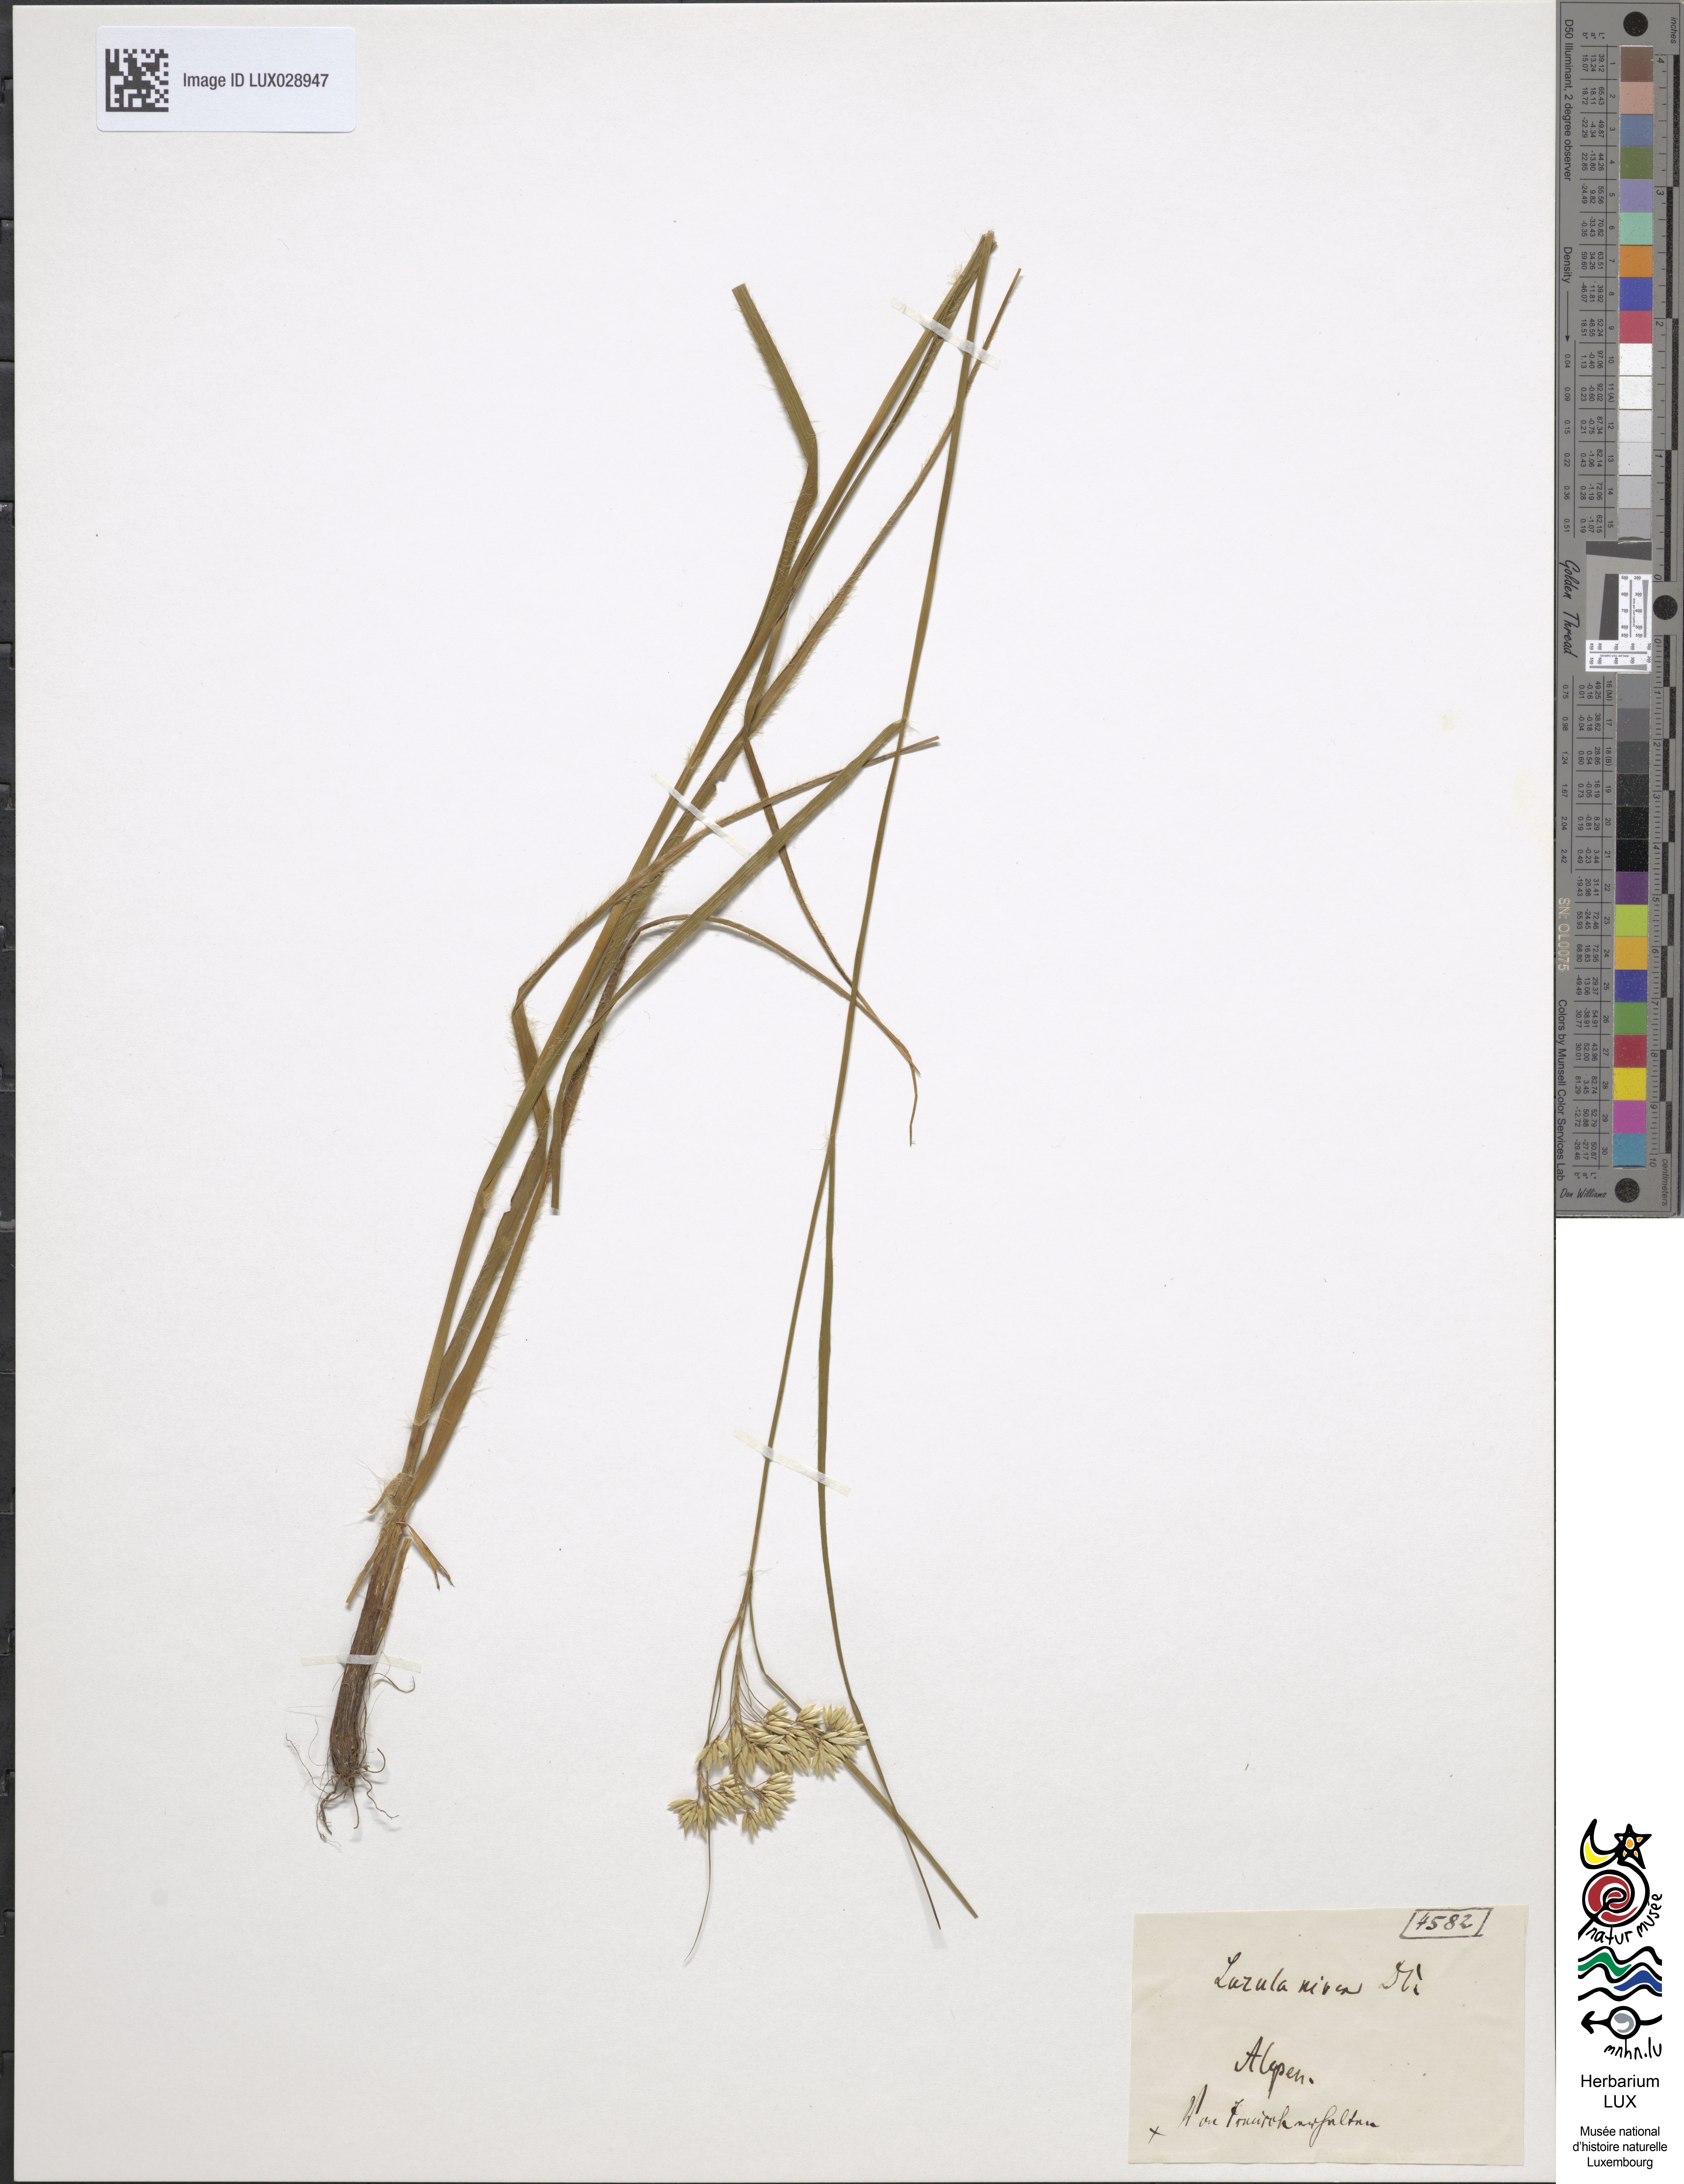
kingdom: Plantae
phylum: Tracheophyta
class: Liliopsida
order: Poales
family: Juncaceae
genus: Luzula
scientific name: Luzula nivea
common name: Snow-white wood-rush
